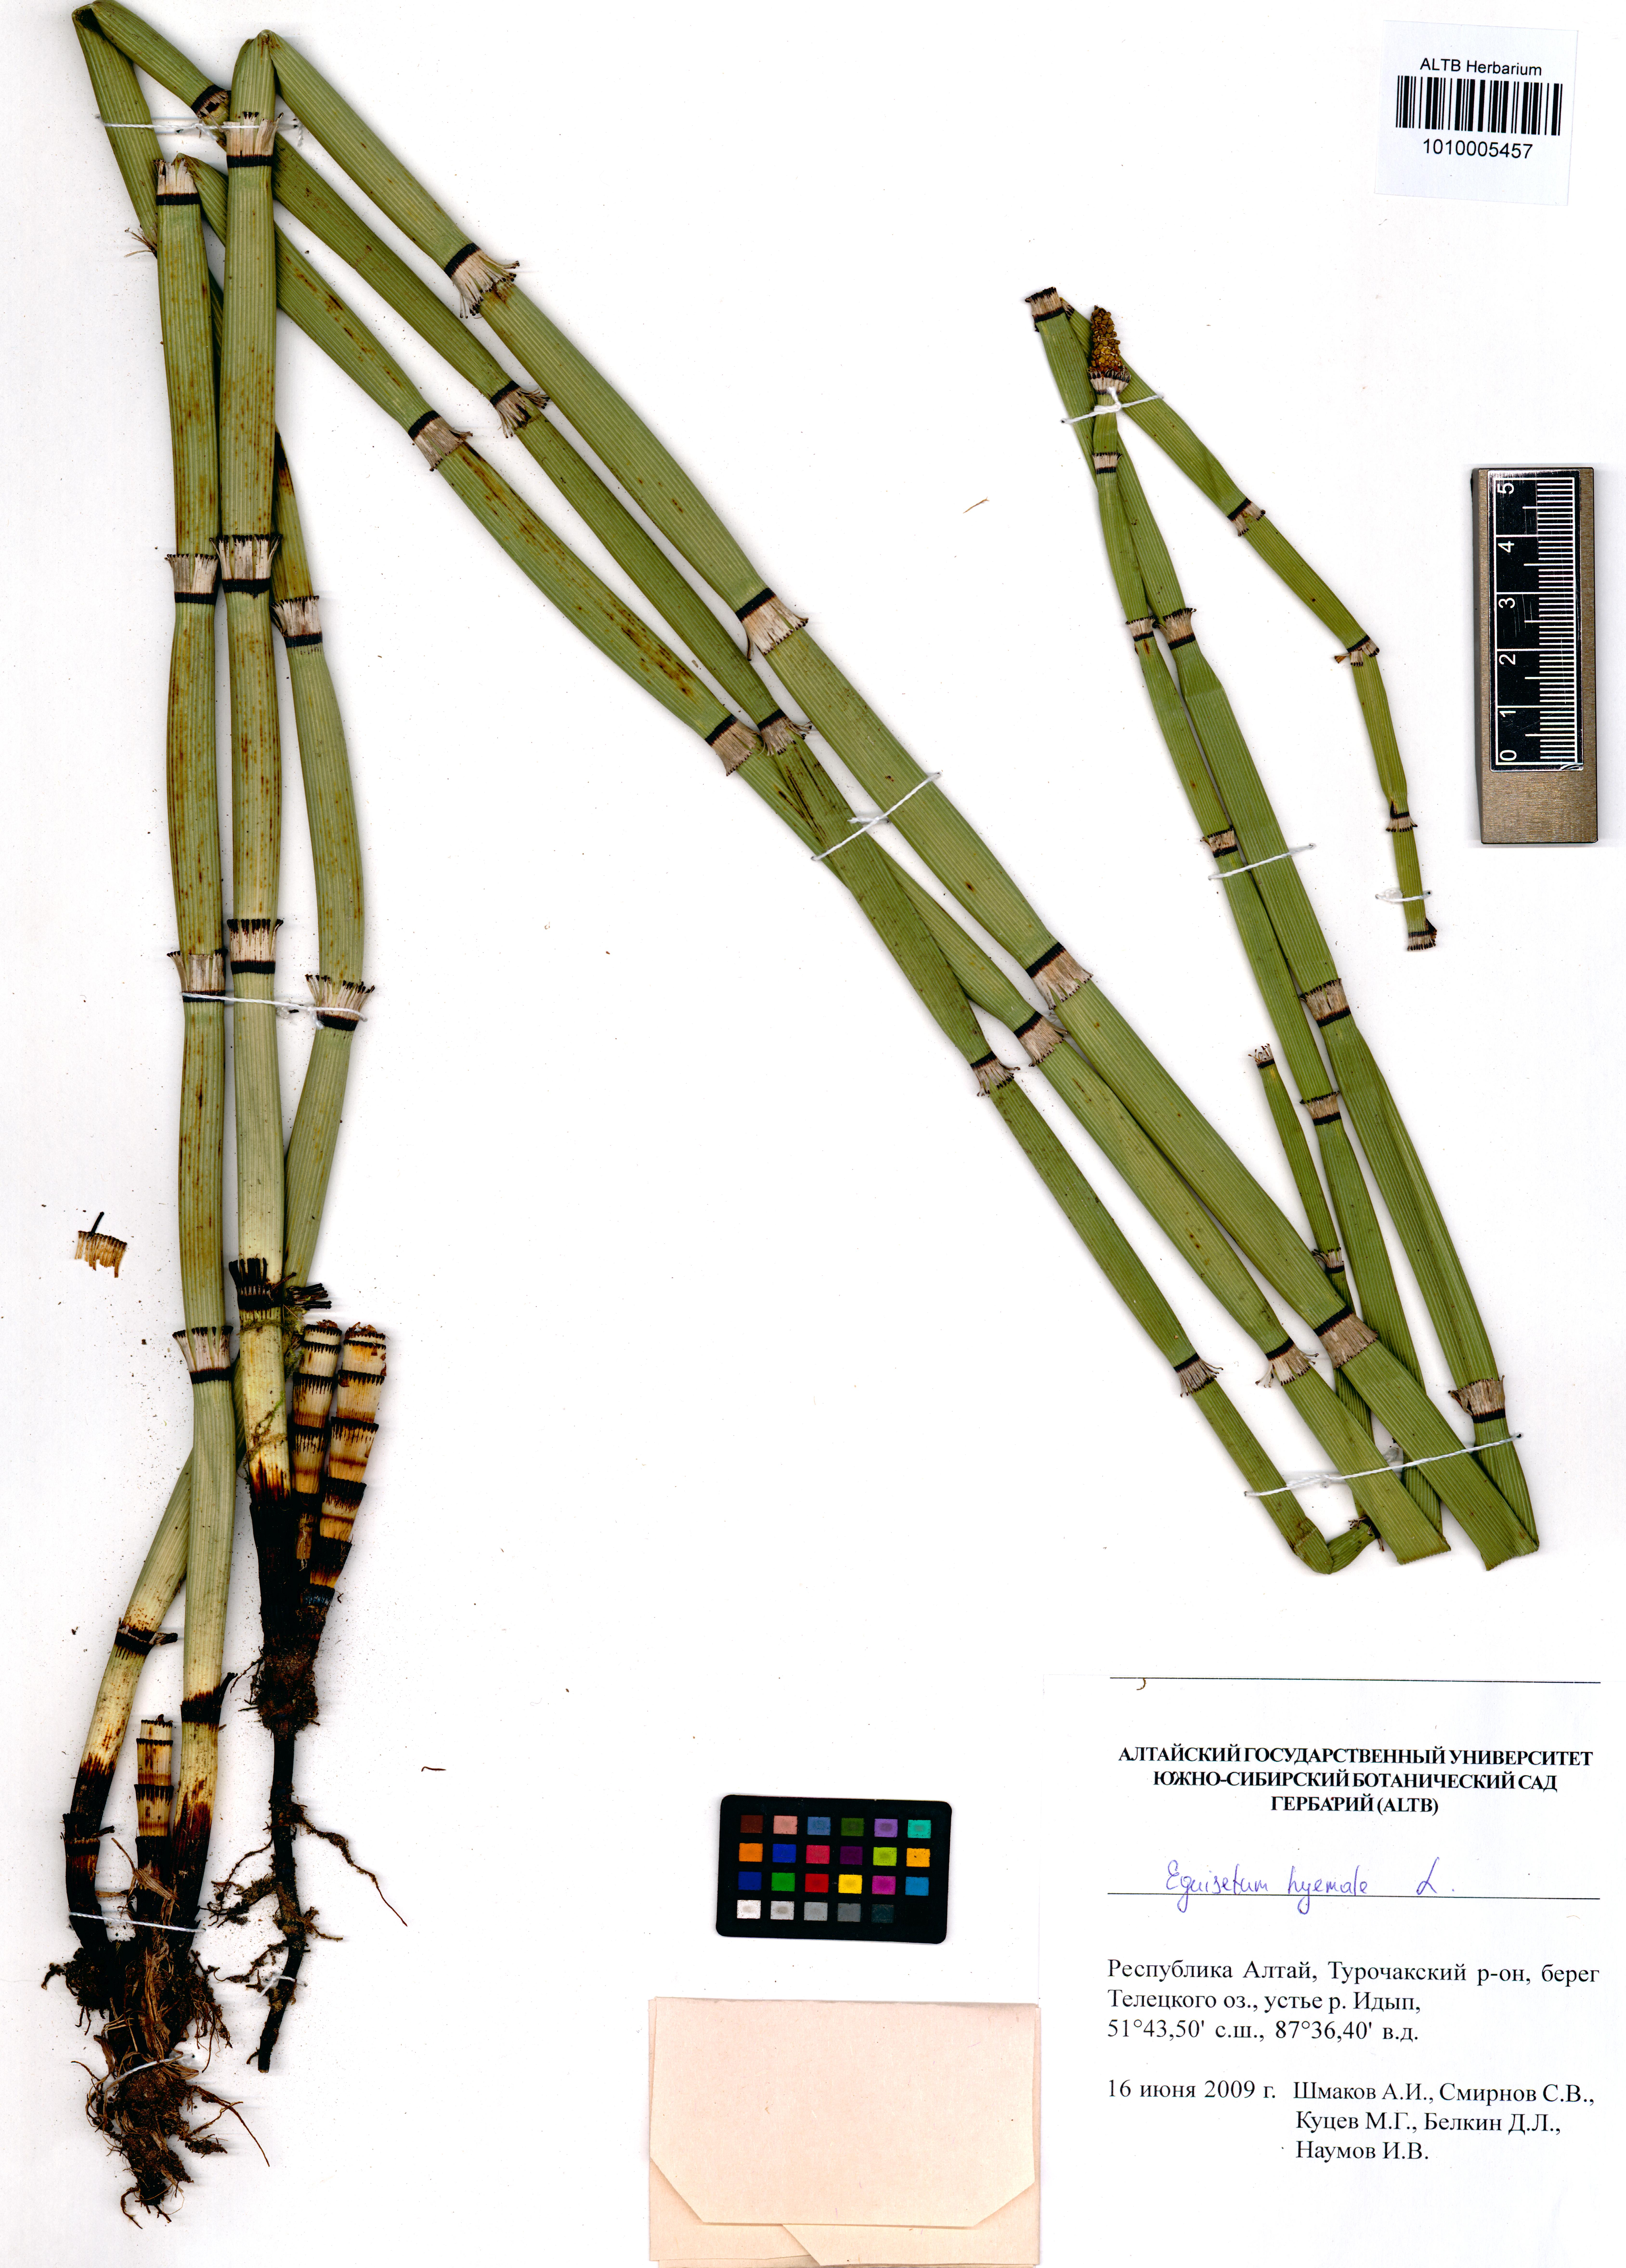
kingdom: Plantae
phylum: Tracheophyta
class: Polypodiopsida
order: Equisetales
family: Equisetaceae
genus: Equisetum
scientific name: Equisetum hyemale
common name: Rough horsetail
